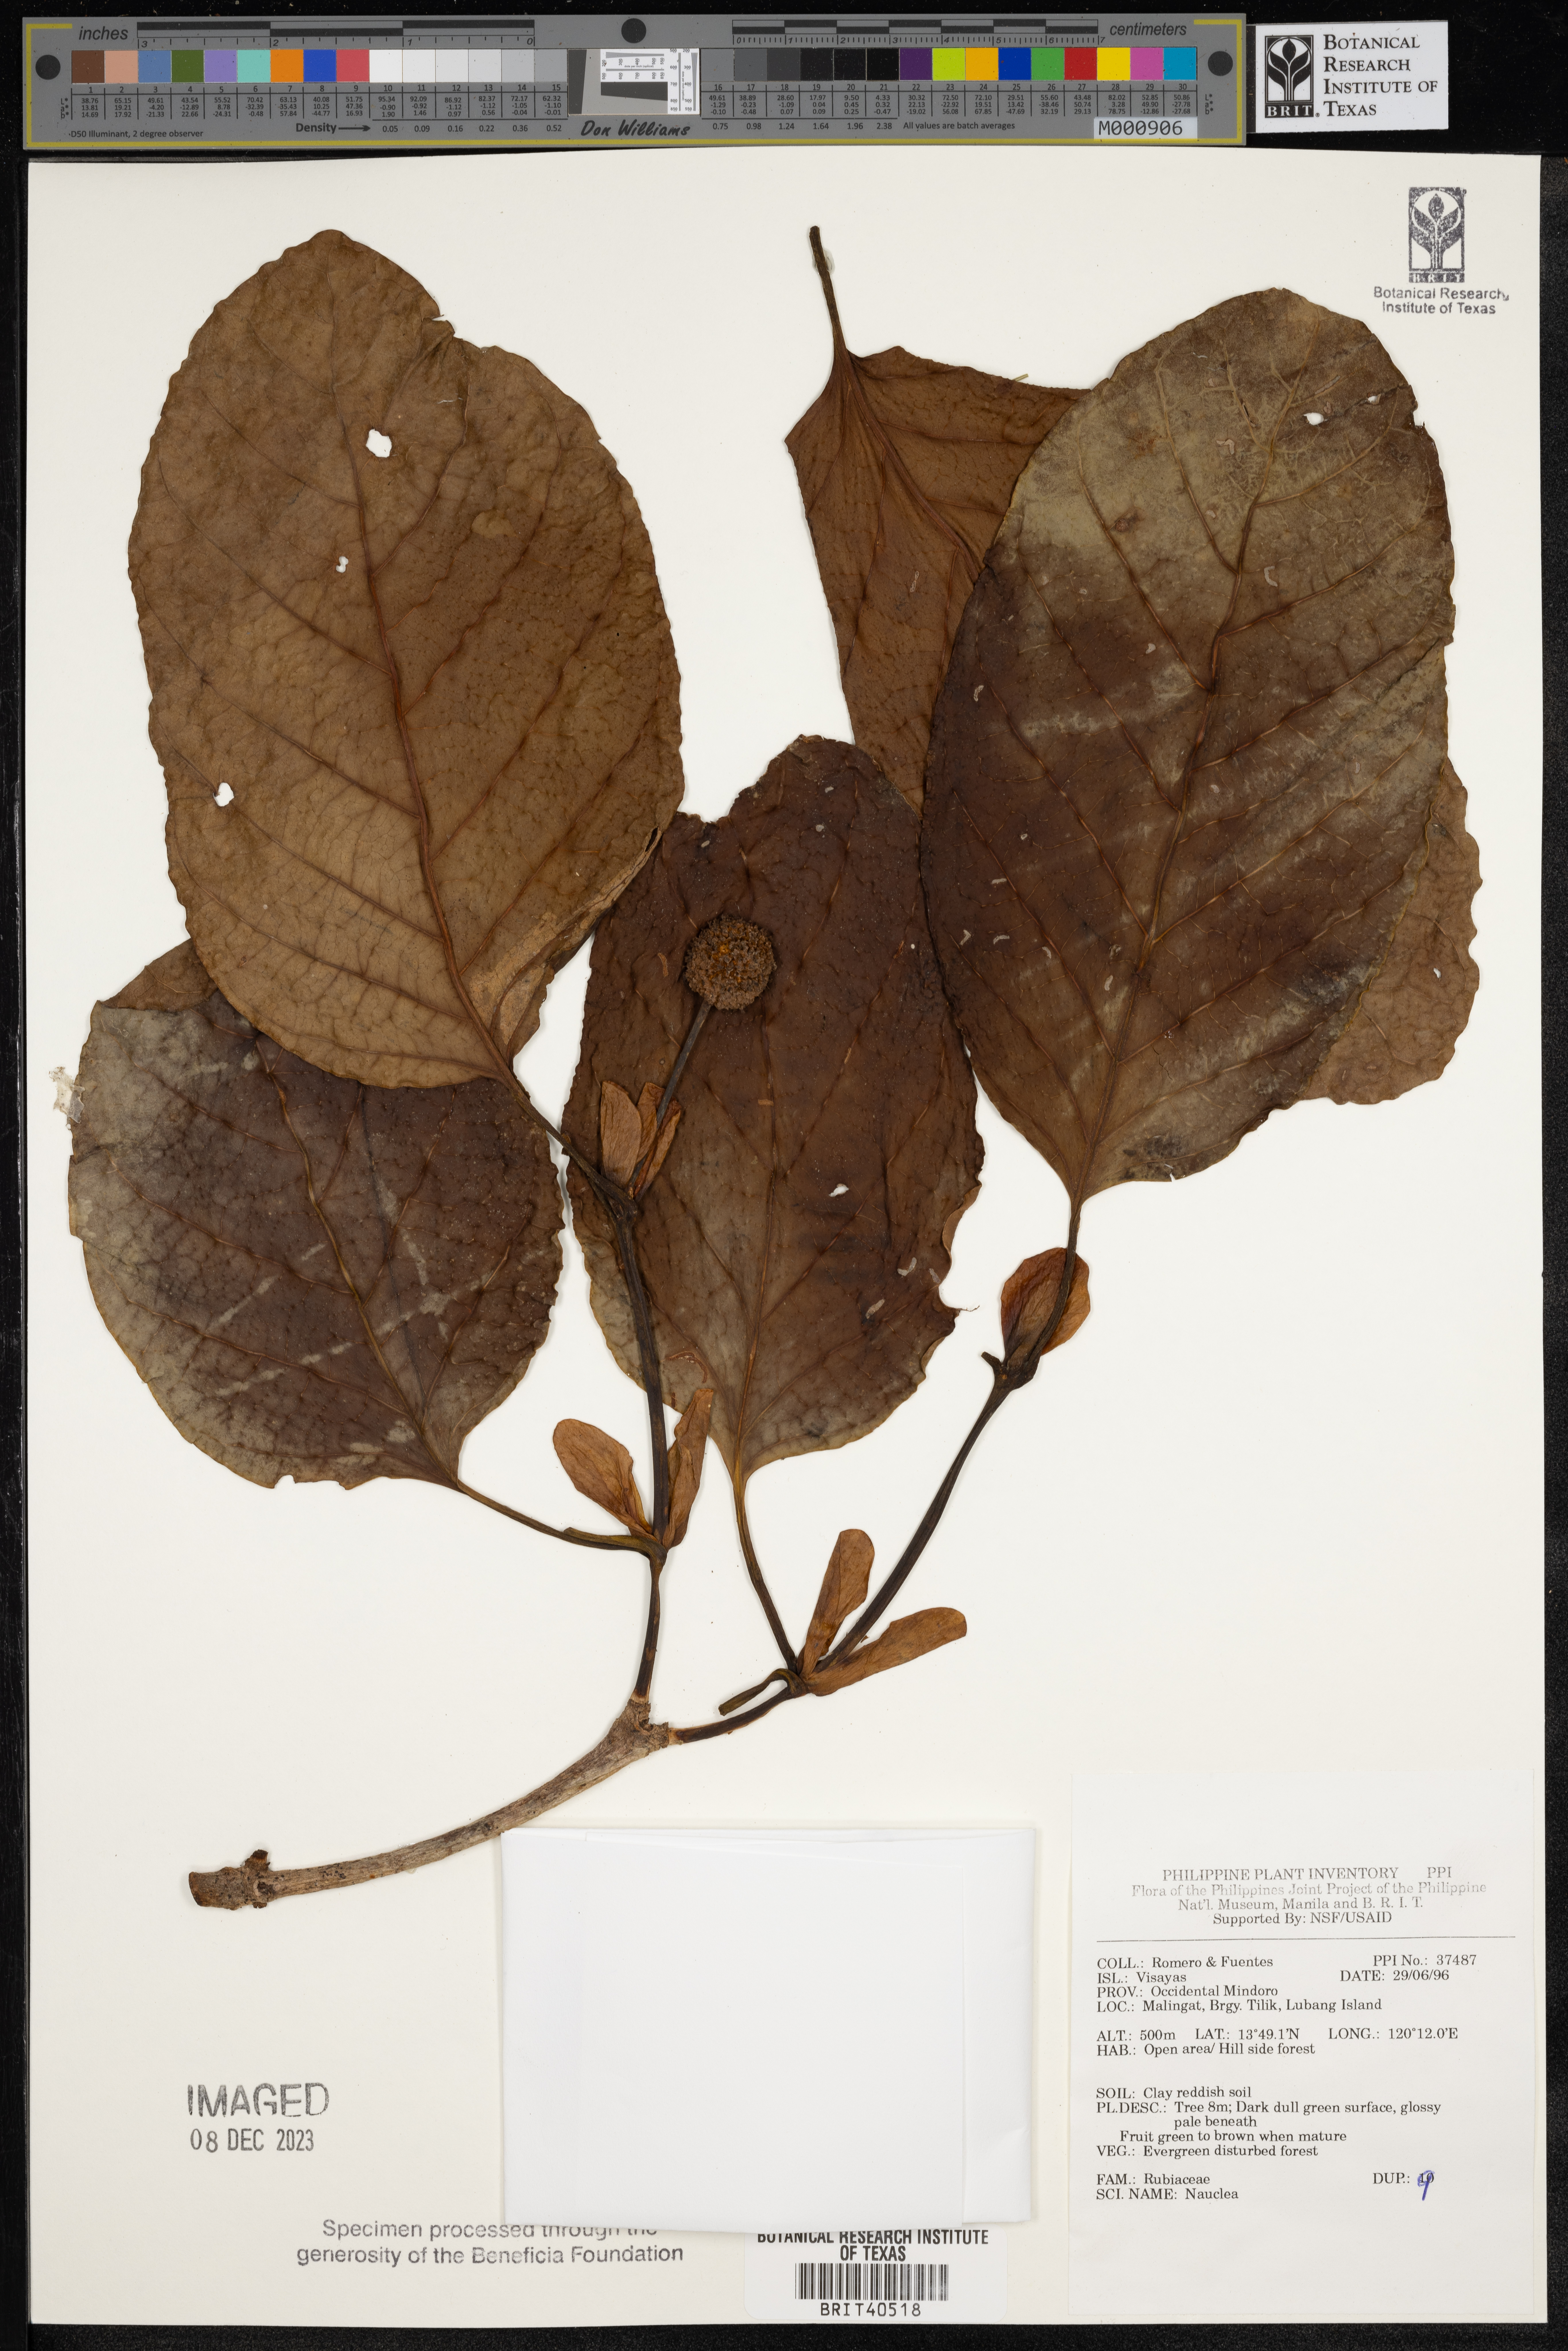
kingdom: Plantae
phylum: Tracheophyta
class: Magnoliopsida
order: Gentianales
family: Rubiaceae
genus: Nauclea
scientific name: Nauclea
